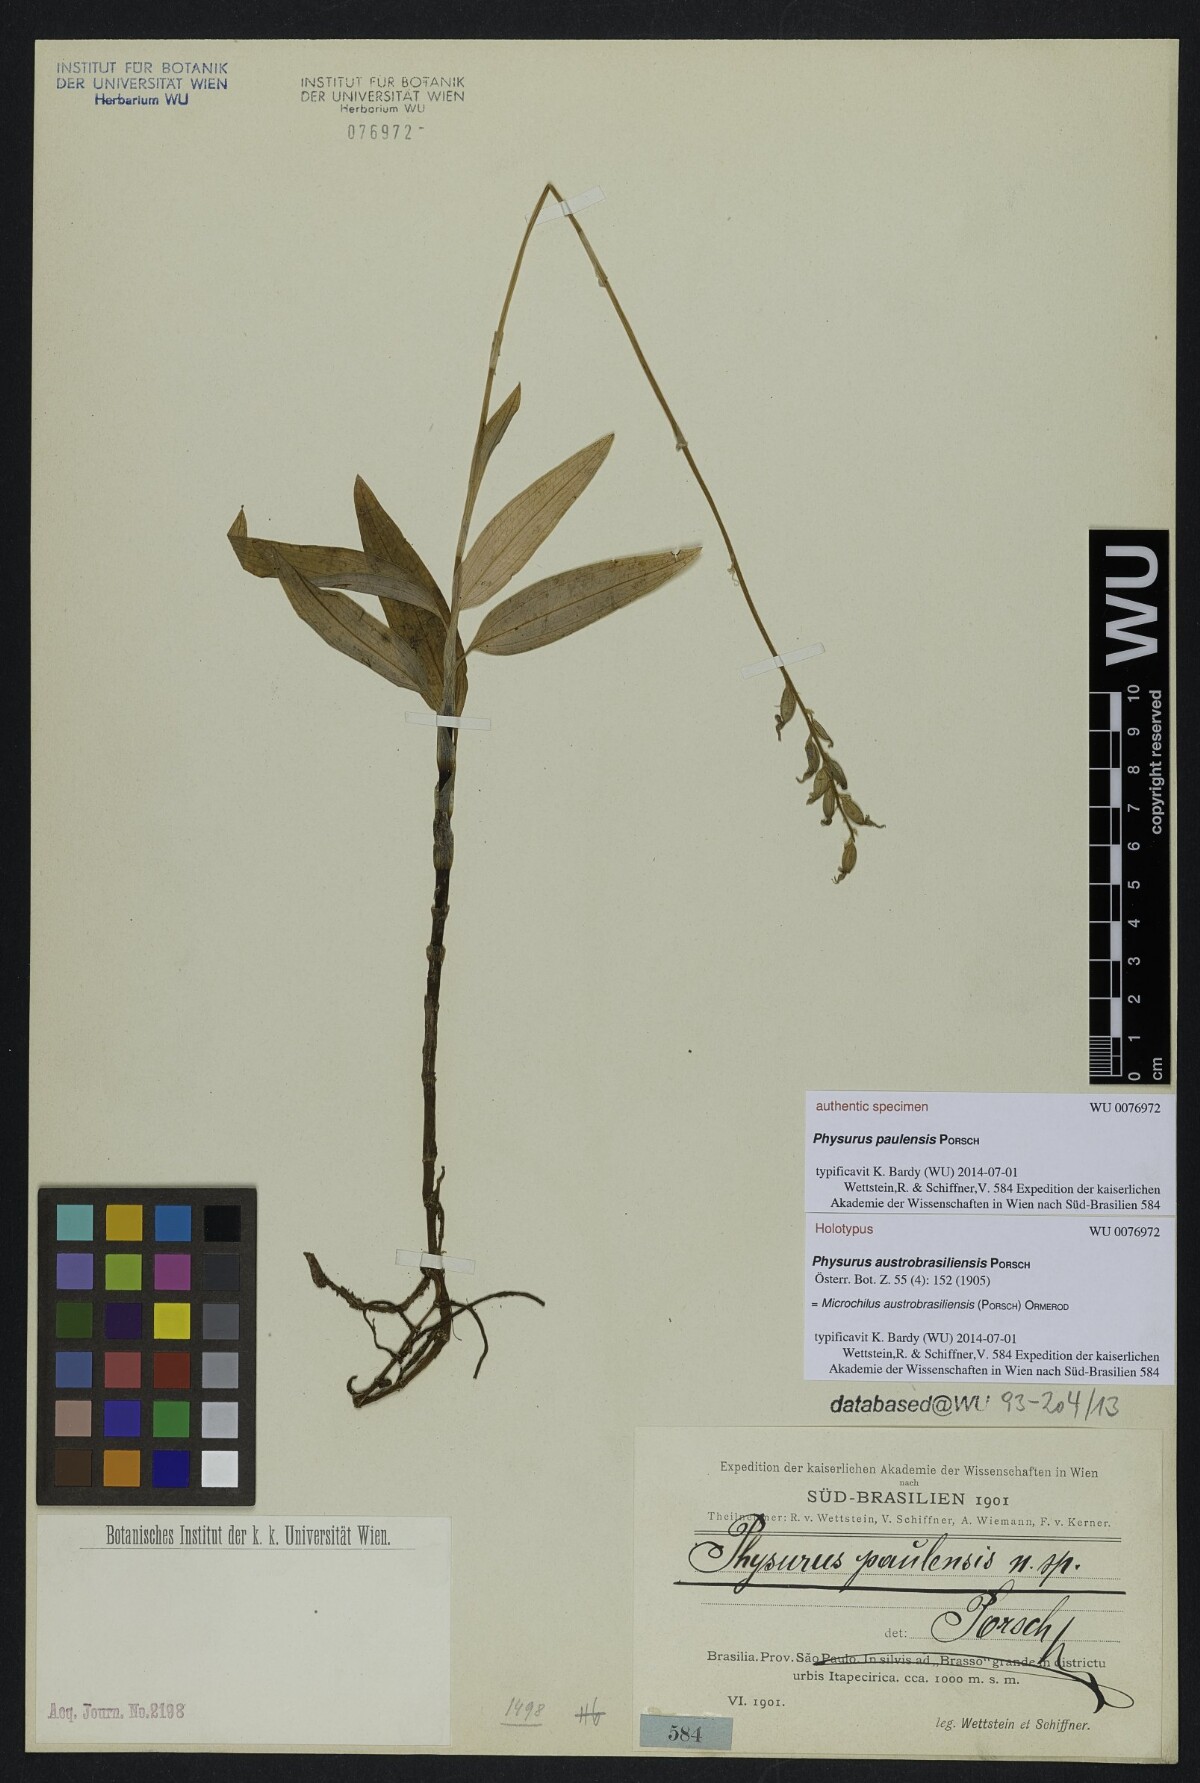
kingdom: Plantae
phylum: Tracheophyta
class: Liliopsida
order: Asparagales
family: Orchidaceae
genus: Microchilus
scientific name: Microchilus austrobrasiliensis
